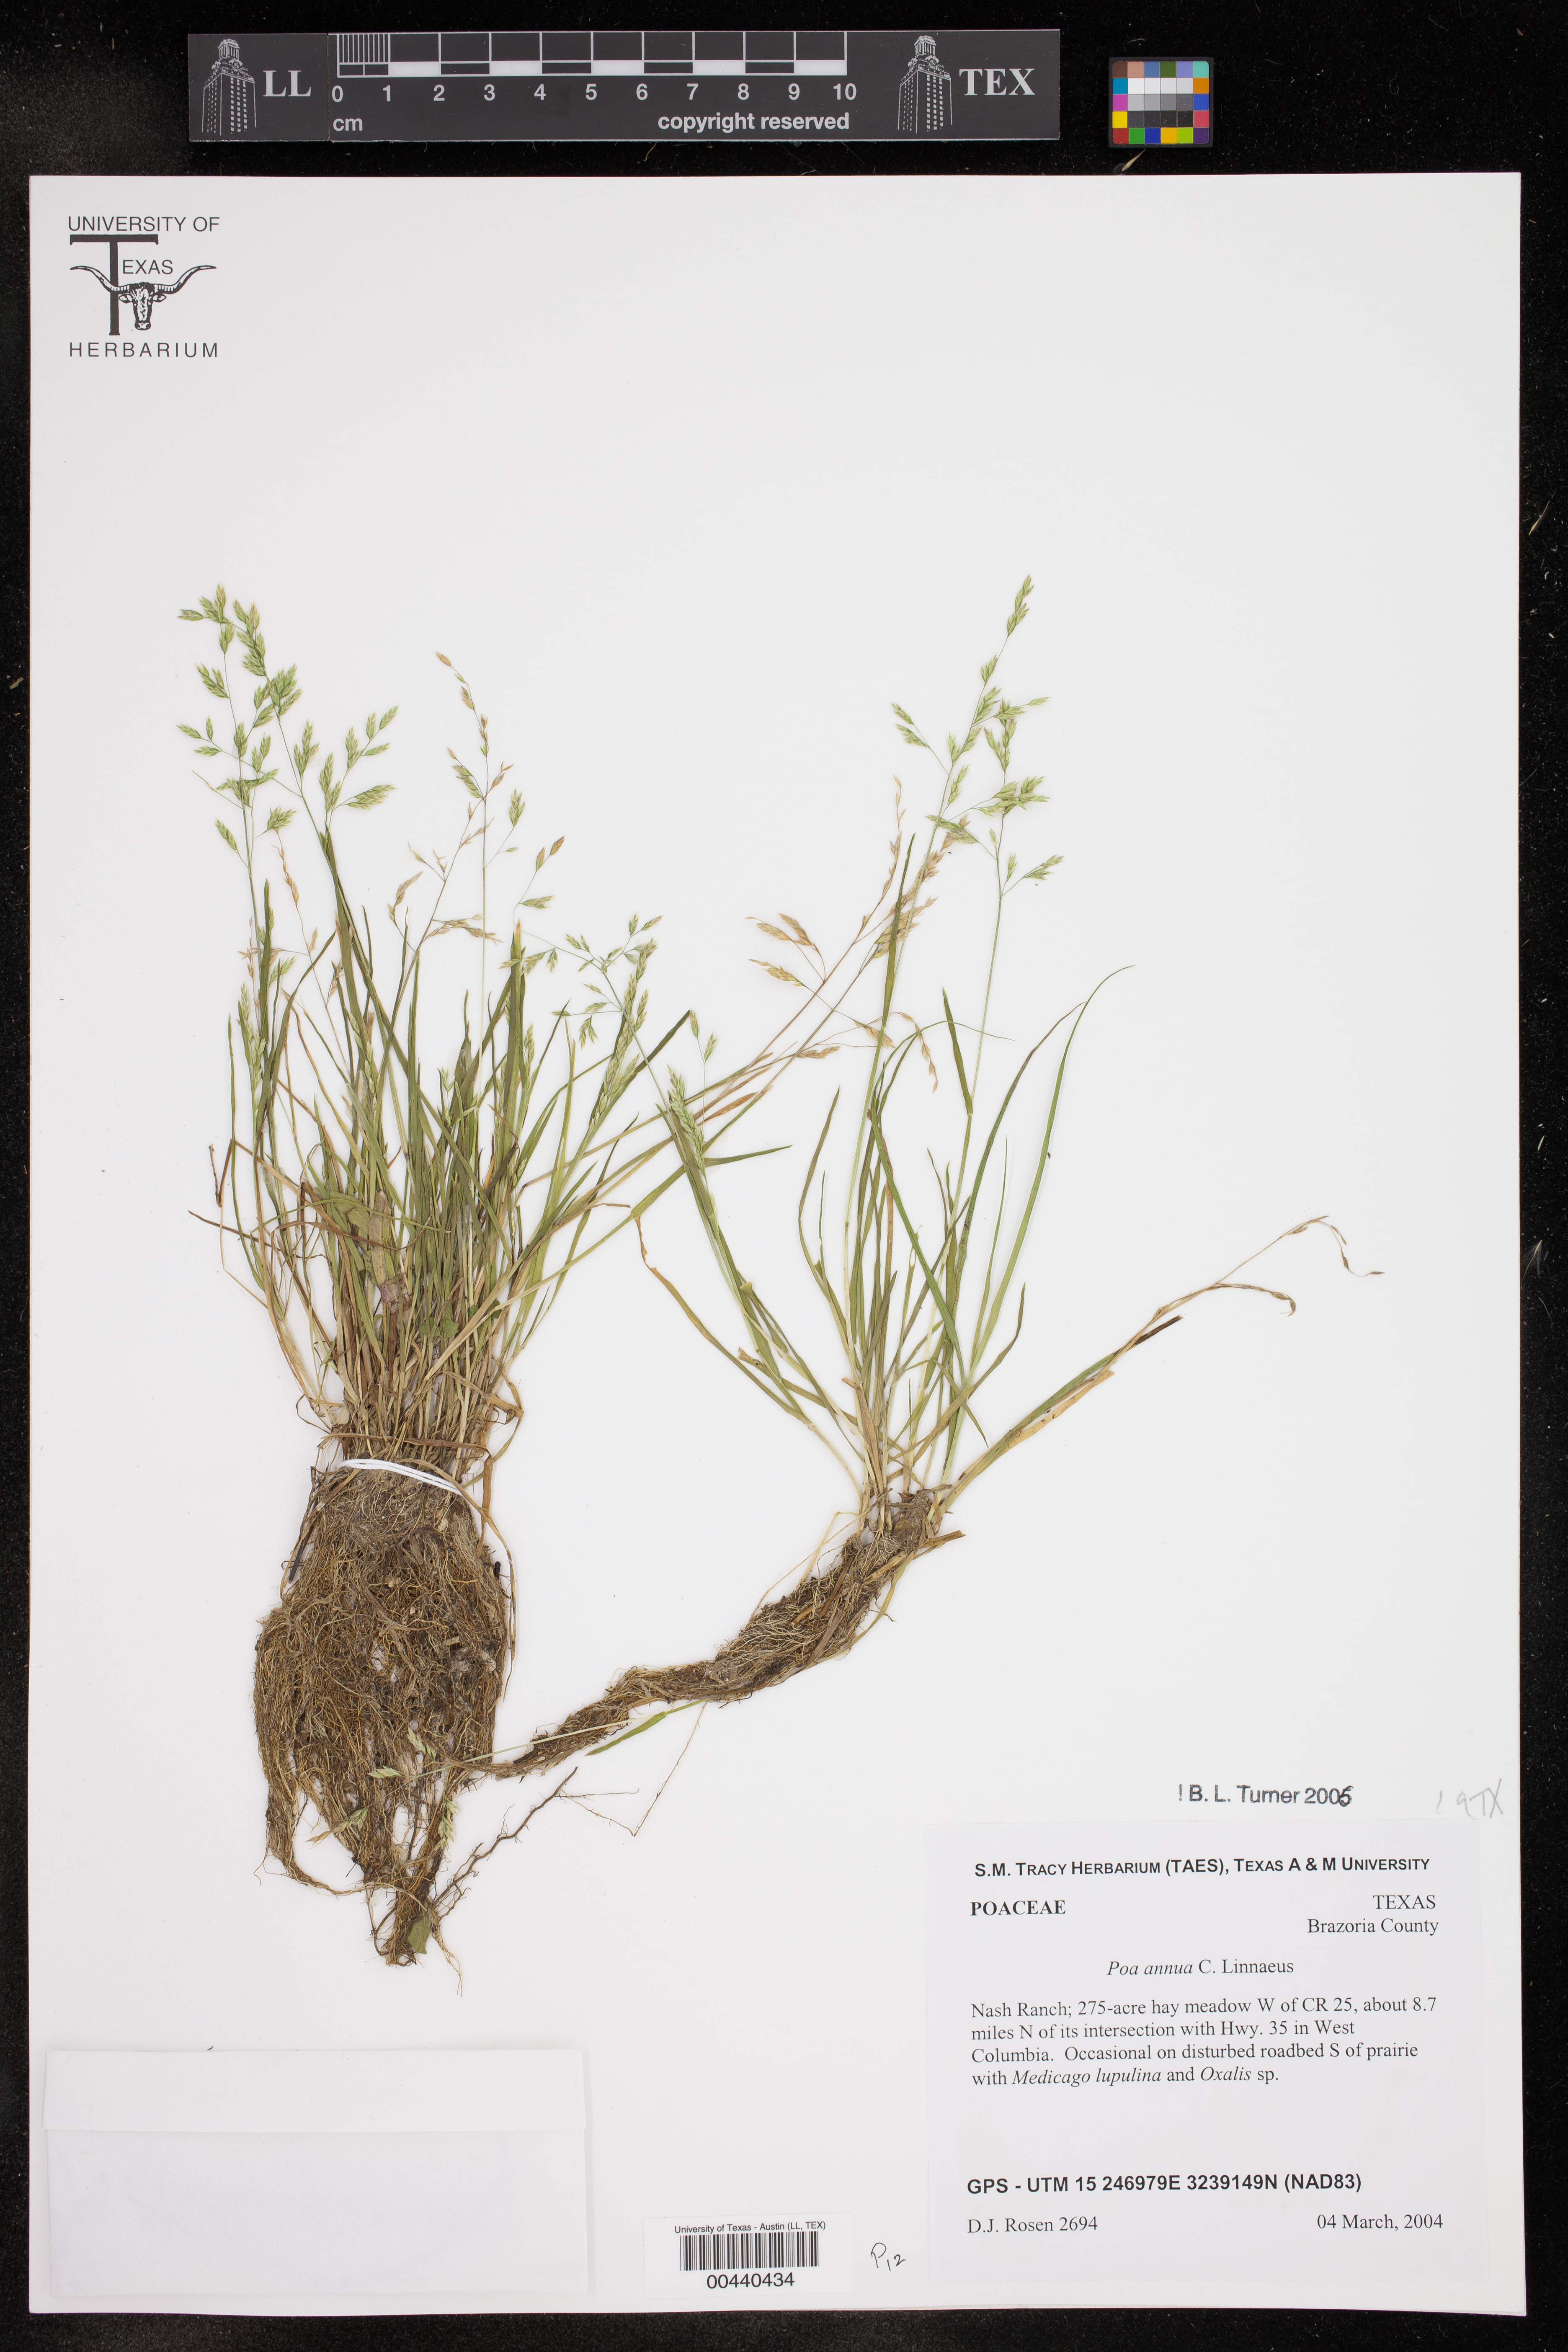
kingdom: Plantae
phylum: Tracheophyta
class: Liliopsida
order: Poales
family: Poaceae
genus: Poa
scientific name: Poa annua
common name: Annual bluegrass
